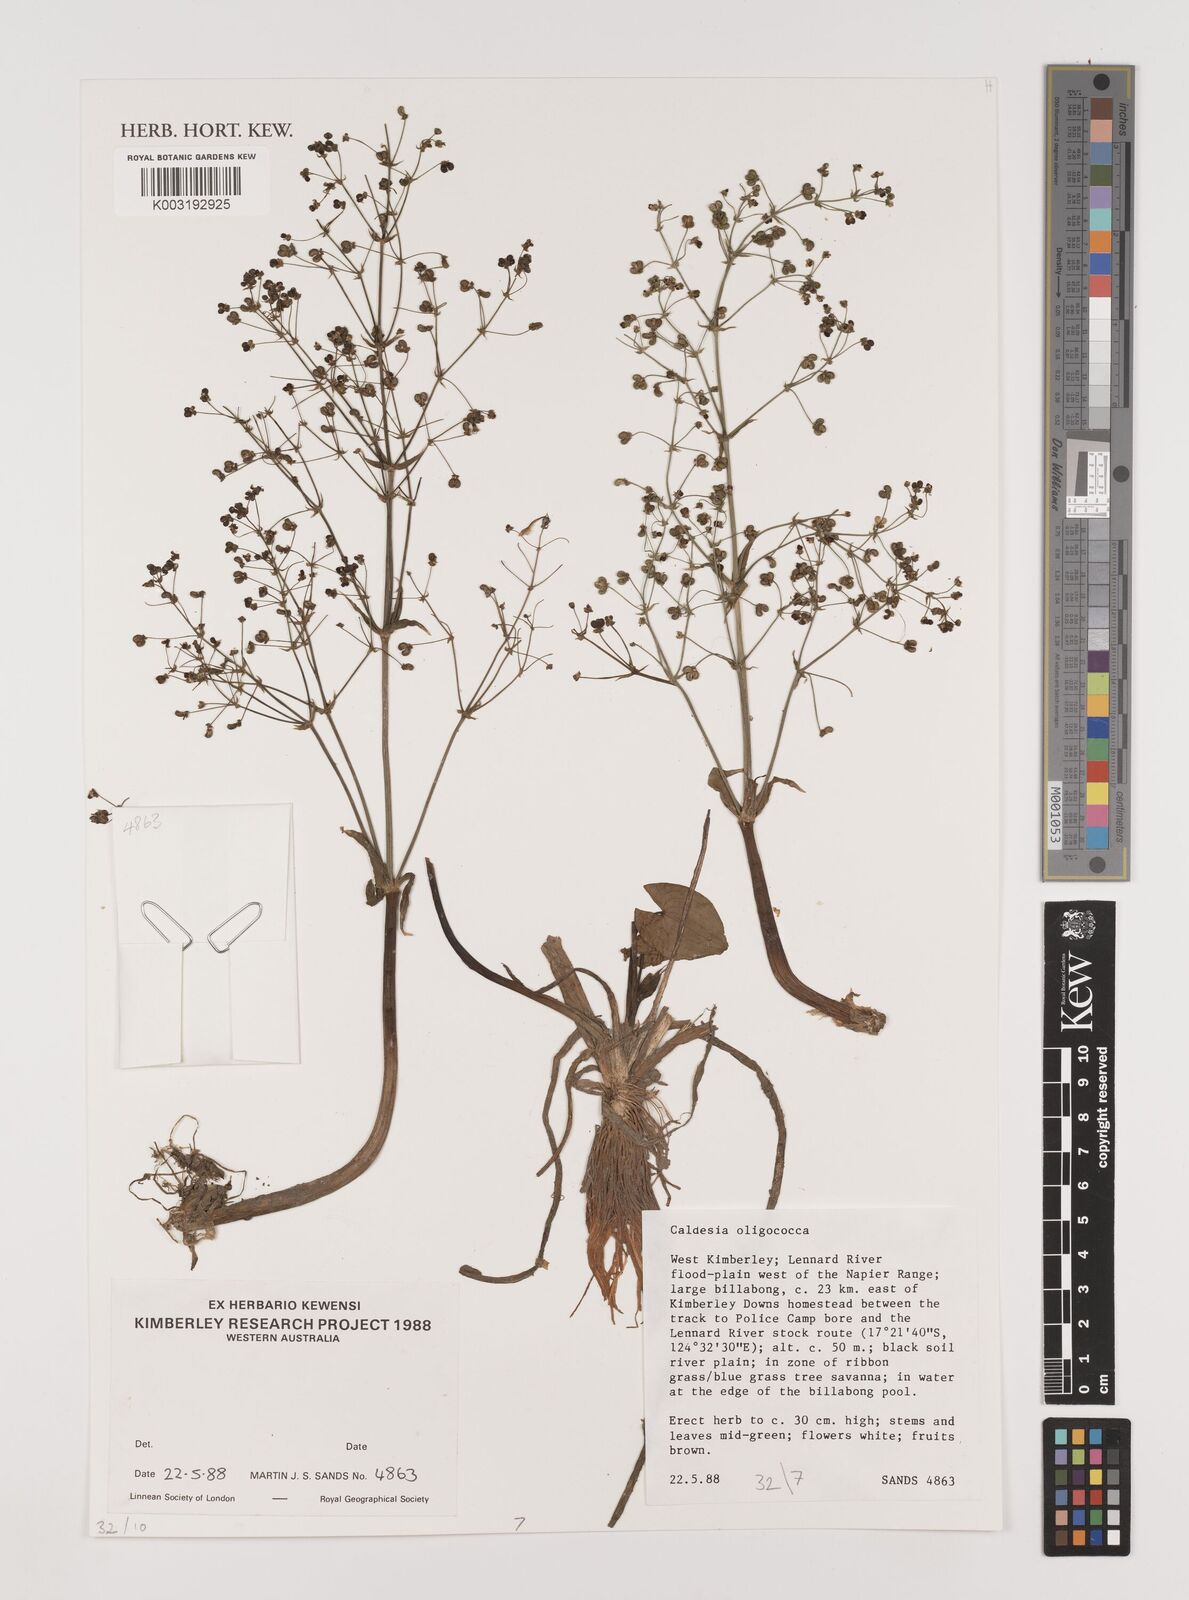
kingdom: Plantae
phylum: Tracheophyta
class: Liliopsida
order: Alismatales
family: Alismataceae
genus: Albidella
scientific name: Albidella oligococca
